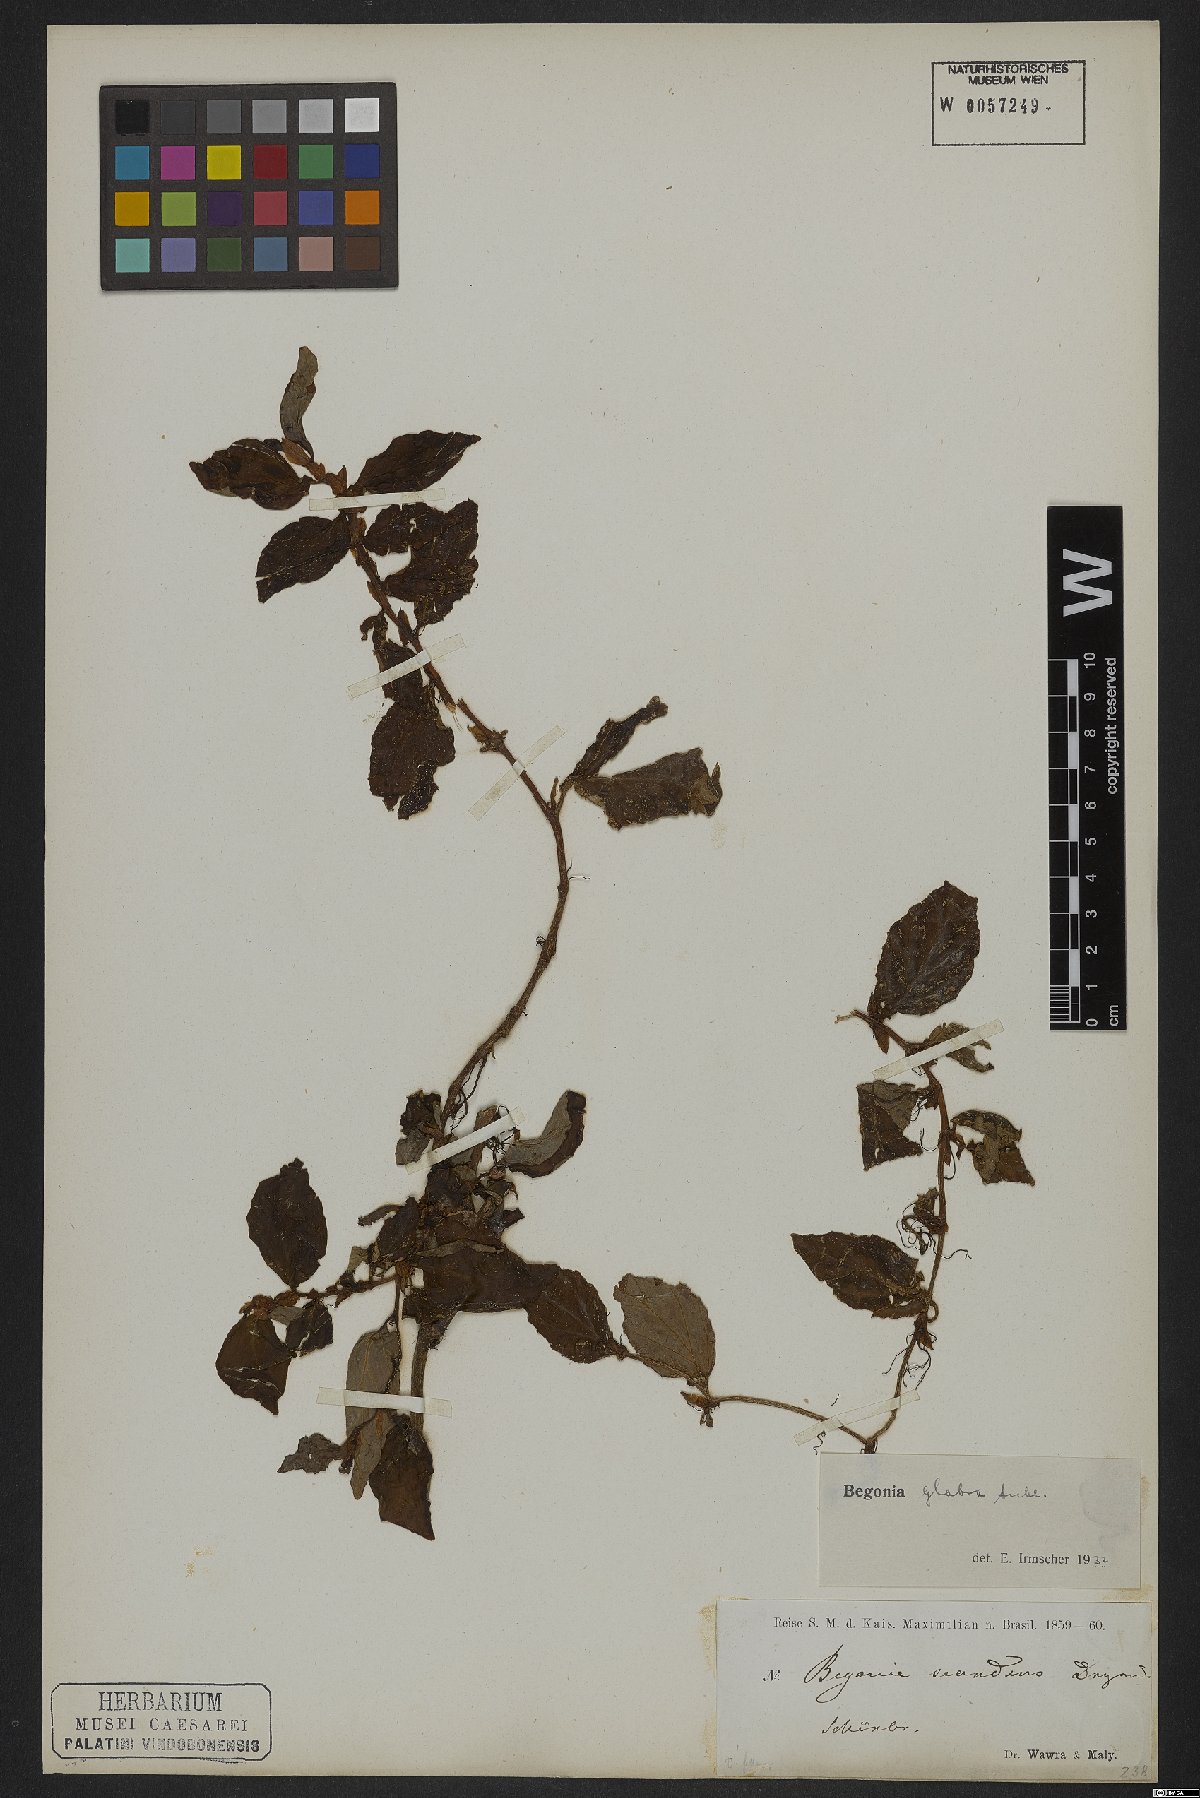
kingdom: Plantae
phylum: Tracheophyta
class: Magnoliopsida
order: Cucurbitales
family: Begoniaceae
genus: Begonia
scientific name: Begonia glabra
